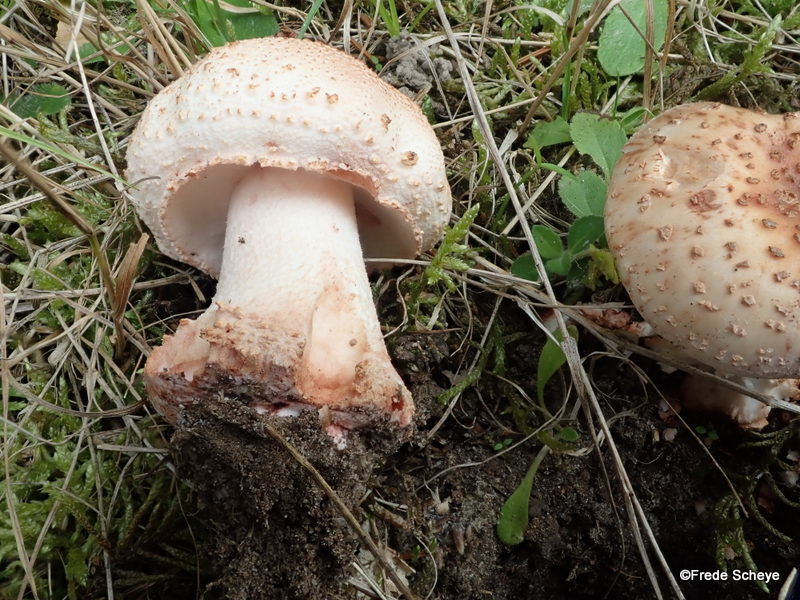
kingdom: Fungi
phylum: Basidiomycota
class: Agaricomycetes
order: Agaricales
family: Amanitaceae
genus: Amanita
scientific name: Amanita rubescens
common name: rødmende fluesvamp
